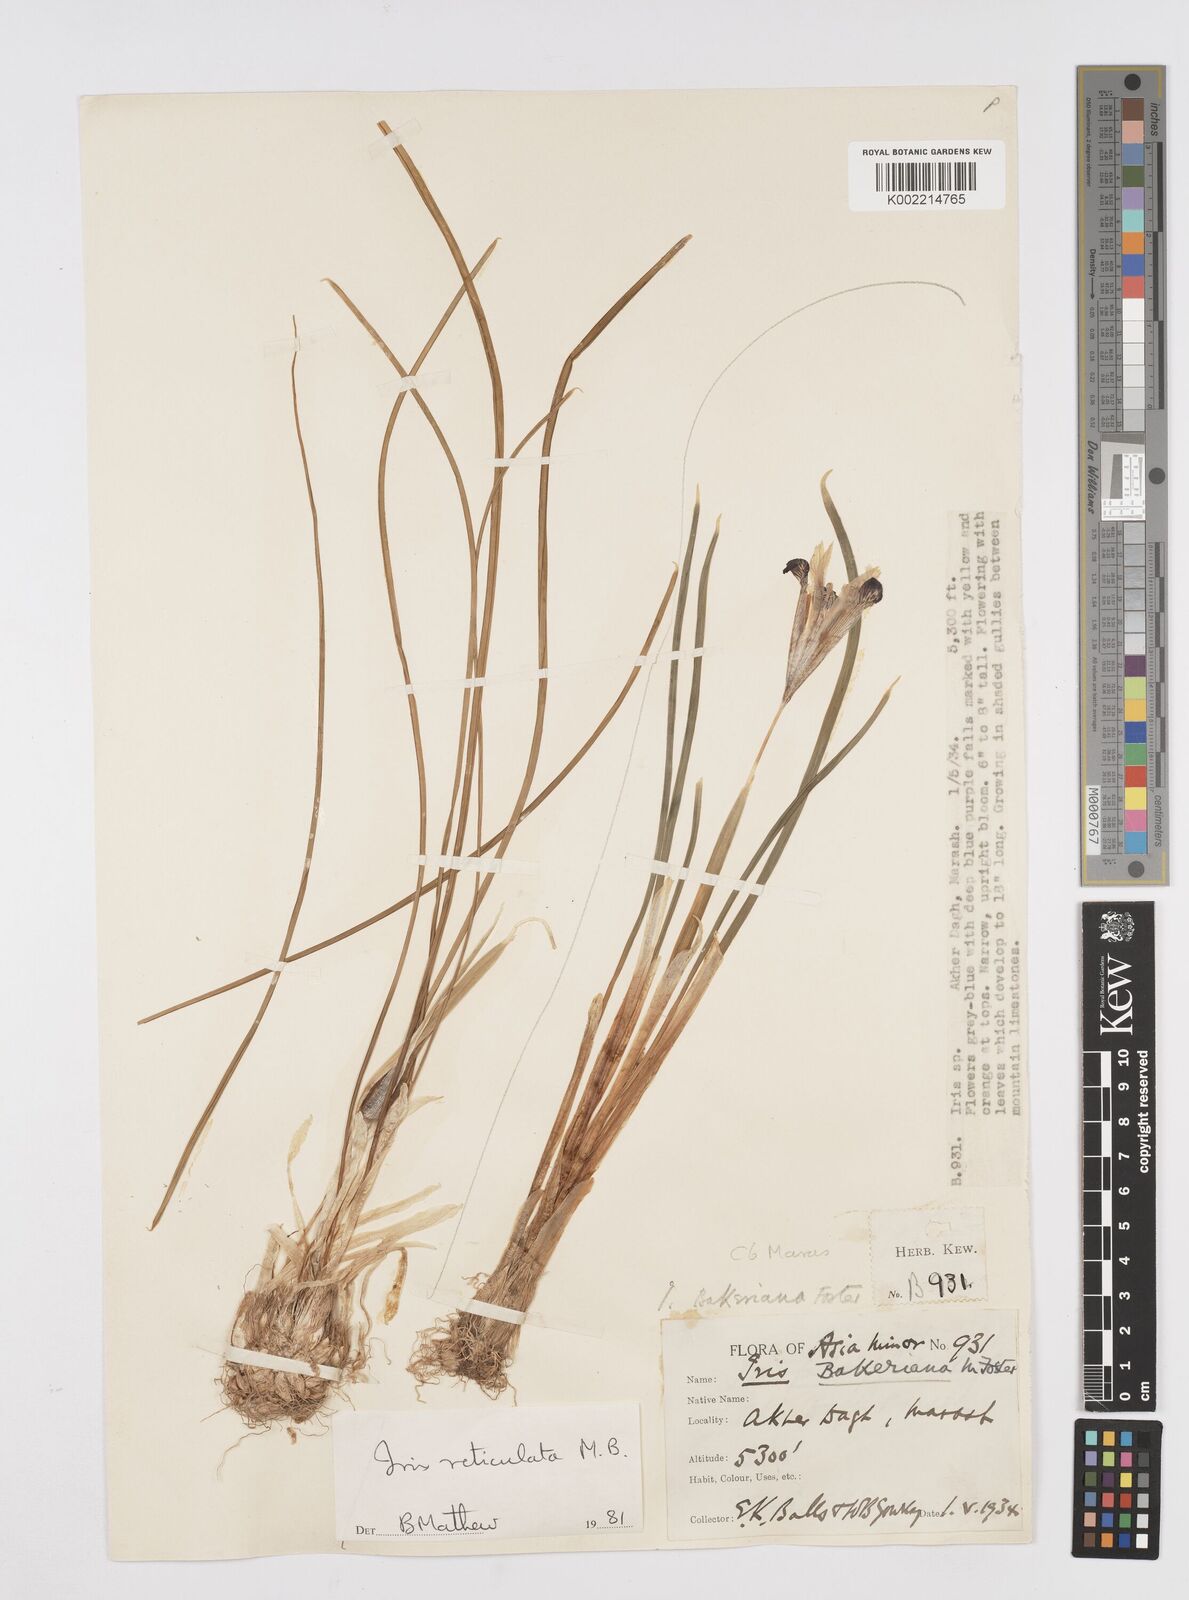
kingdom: Plantae
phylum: Tracheophyta
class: Liliopsida
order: Asparagales
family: Iridaceae
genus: Iris
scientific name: Iris reticulata
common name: Netted iris
